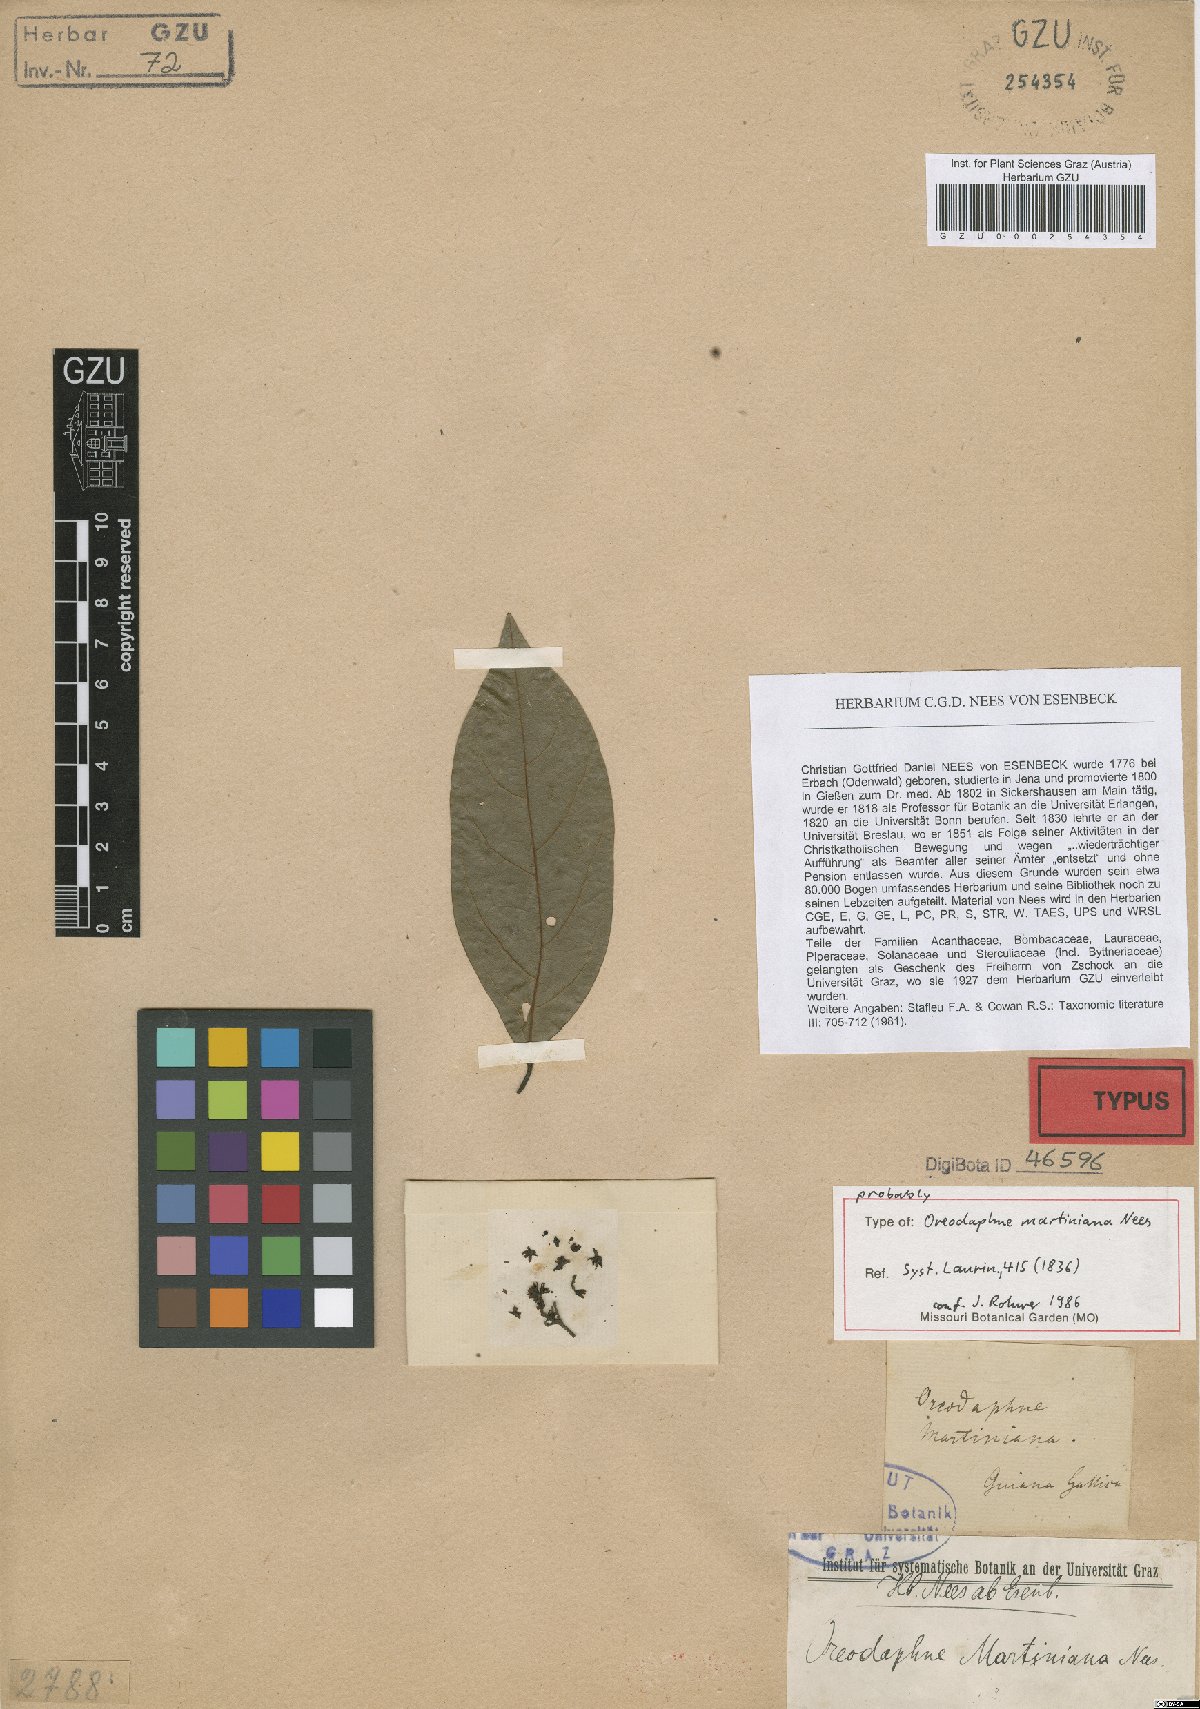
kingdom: Plantae
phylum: Tracheophyta
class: Magnoliopsida
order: Laurales
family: Lauraceae
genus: Ocotea
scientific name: Ocotea puberula
